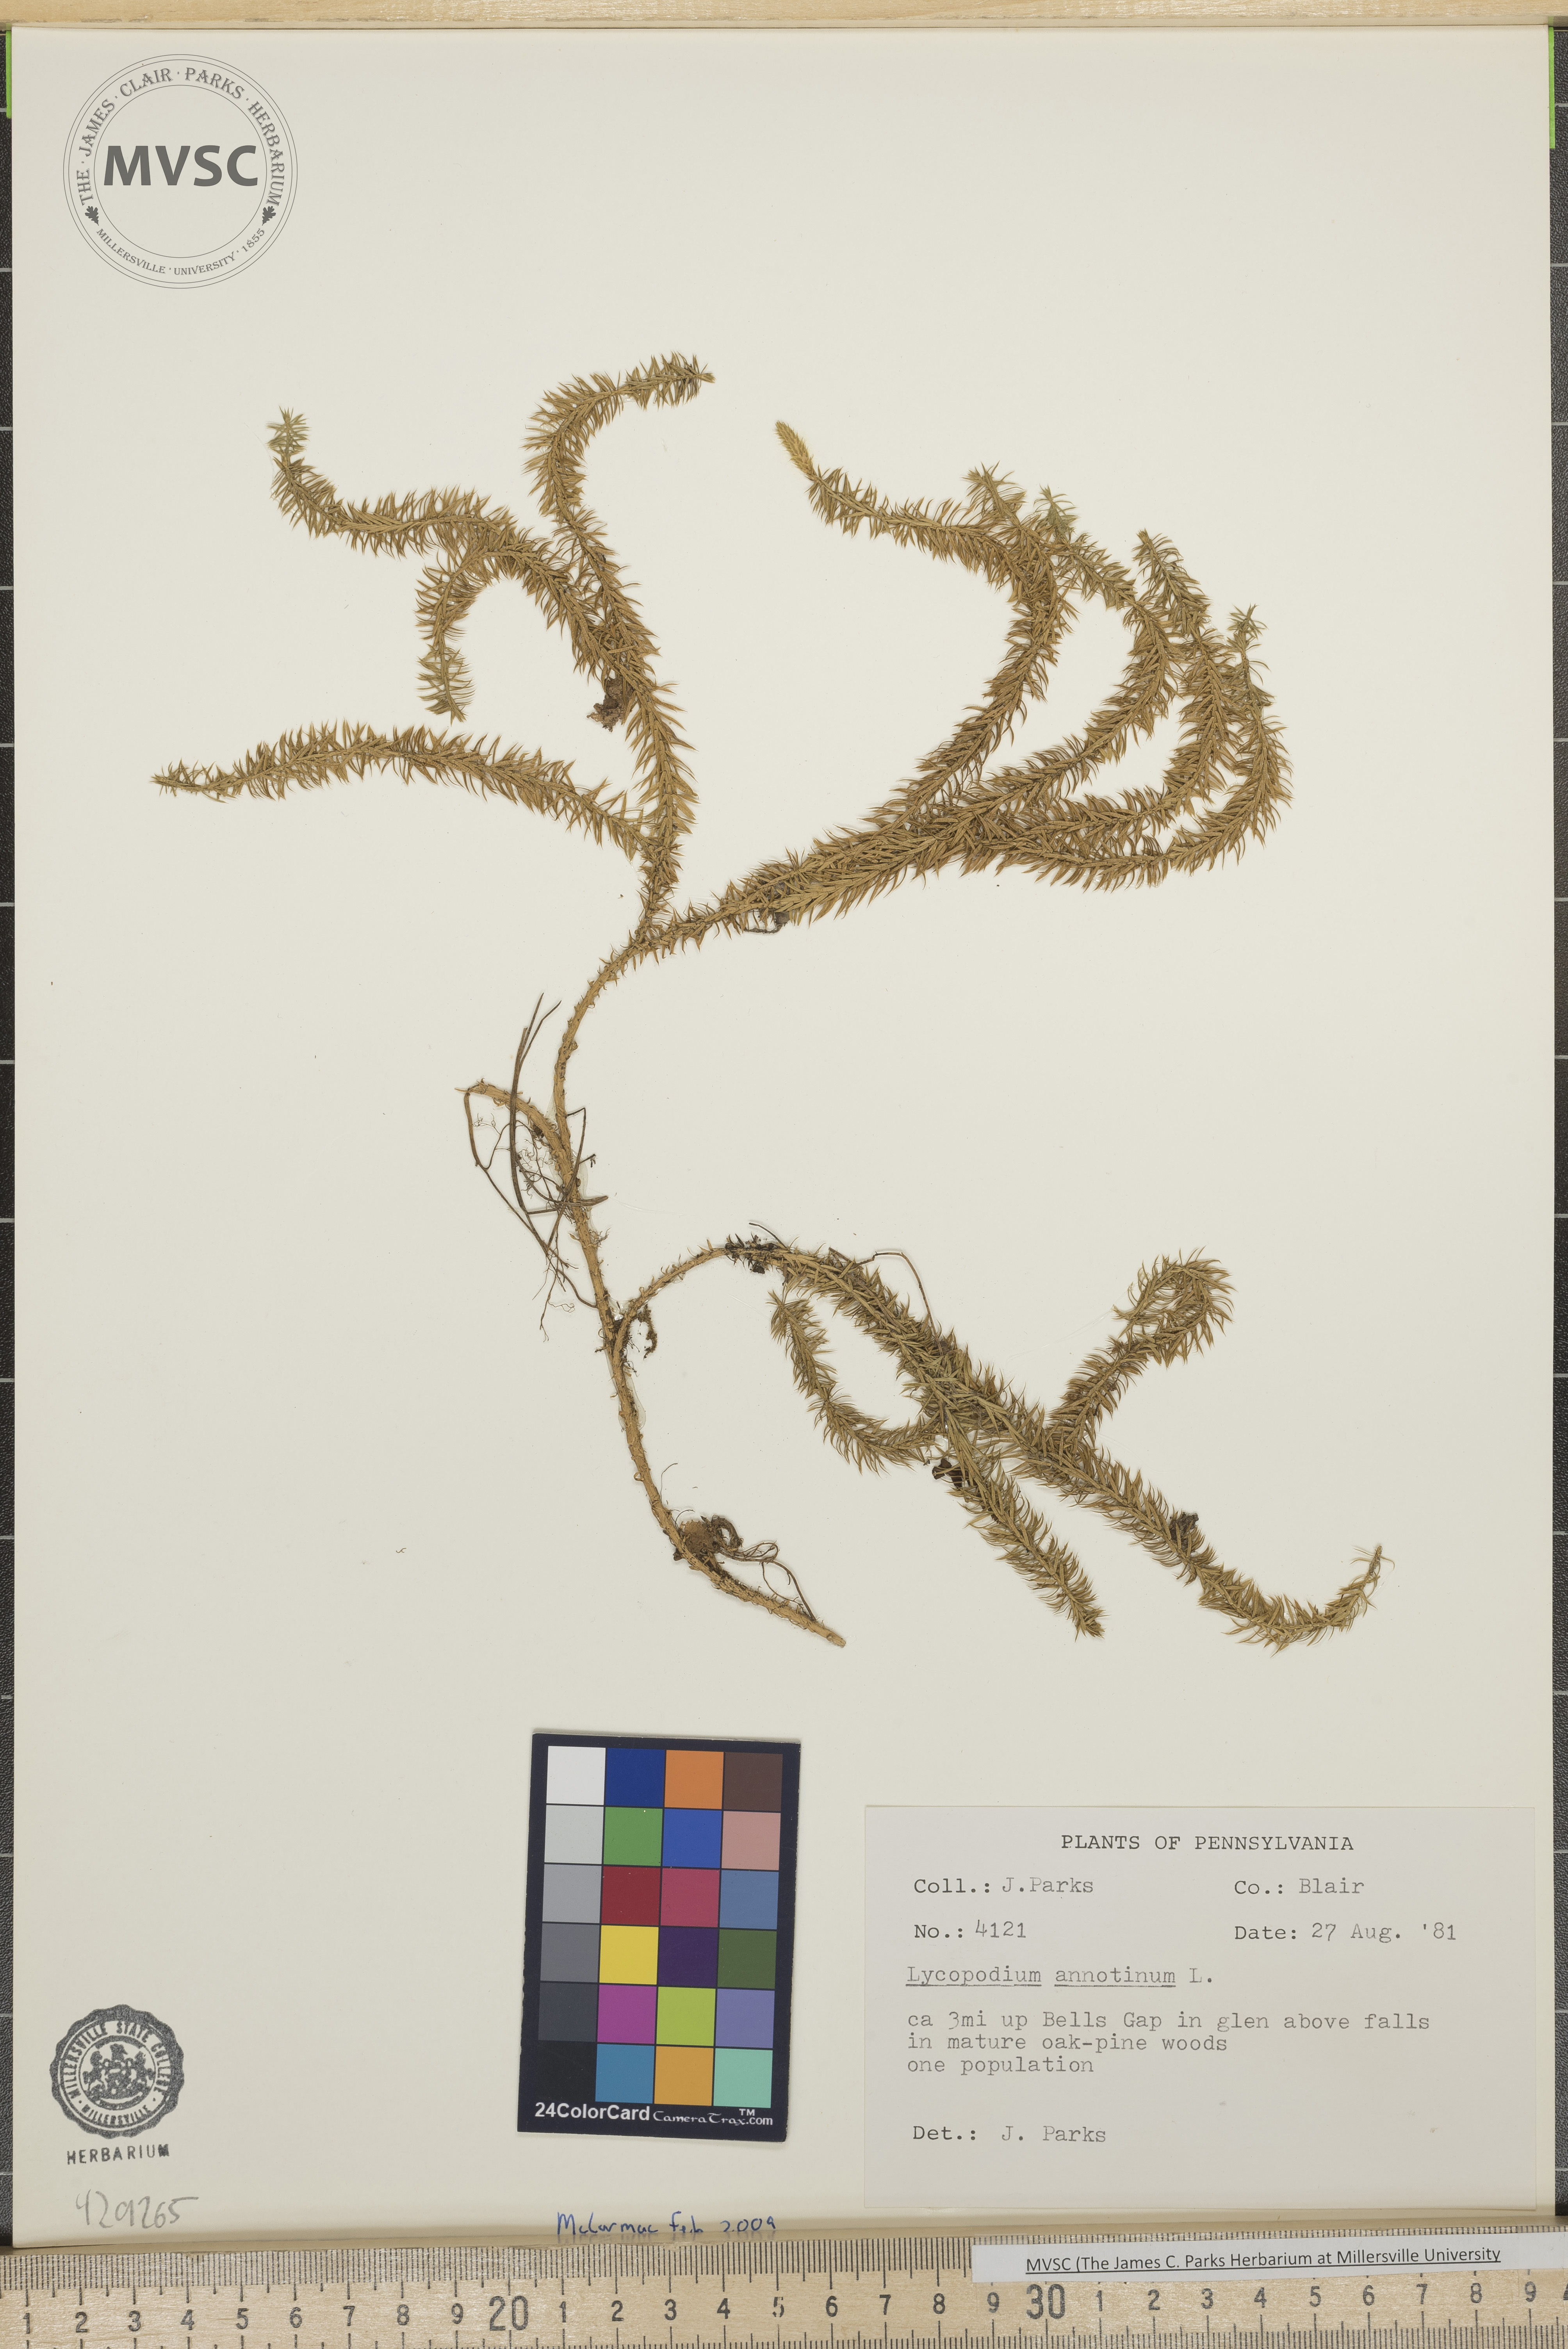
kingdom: Plantae
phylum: Tracheophyta
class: Lycopodiopsida
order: Lycopodiales
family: Lycopodiaceae
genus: Spinulum
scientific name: Spinulum annotinum
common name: Interrupted club-moss
